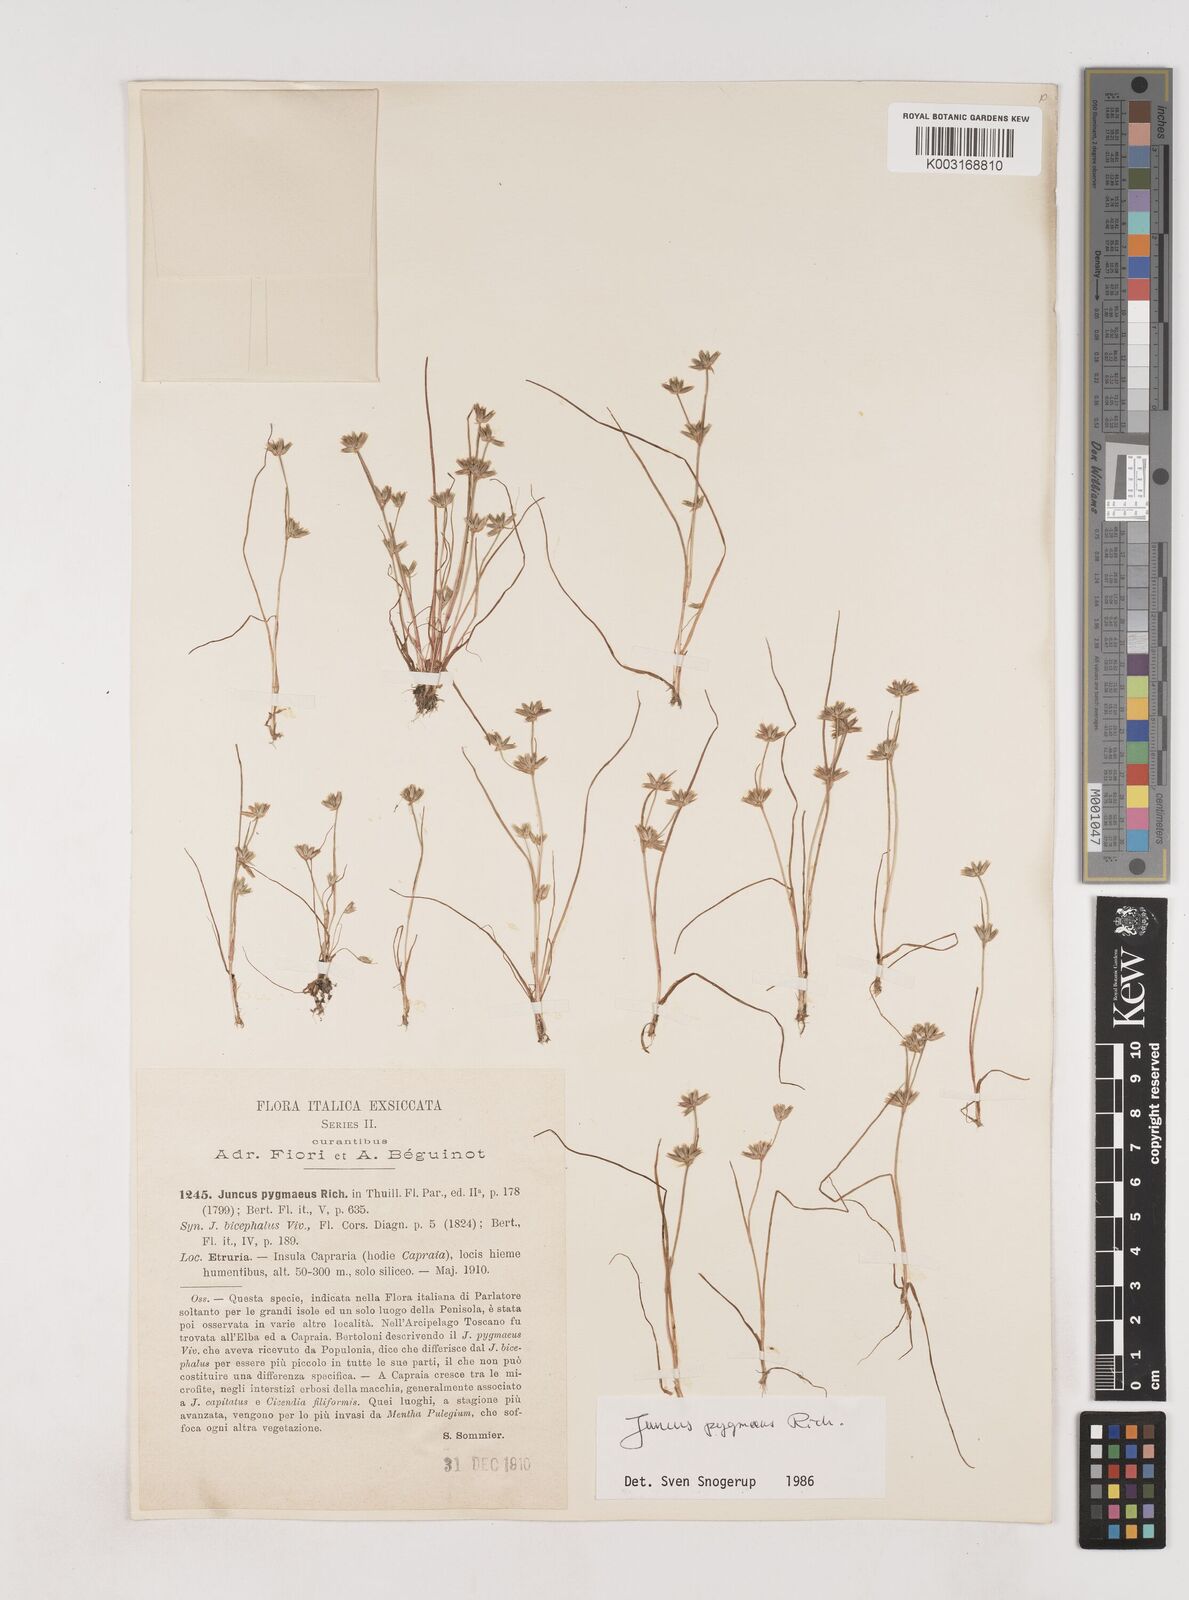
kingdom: Plantae
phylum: Tracheophyta
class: Liliopsida
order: Poales
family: Juncaceae
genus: Juncus
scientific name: Juncus pygmaeus
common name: Pigmy rush
